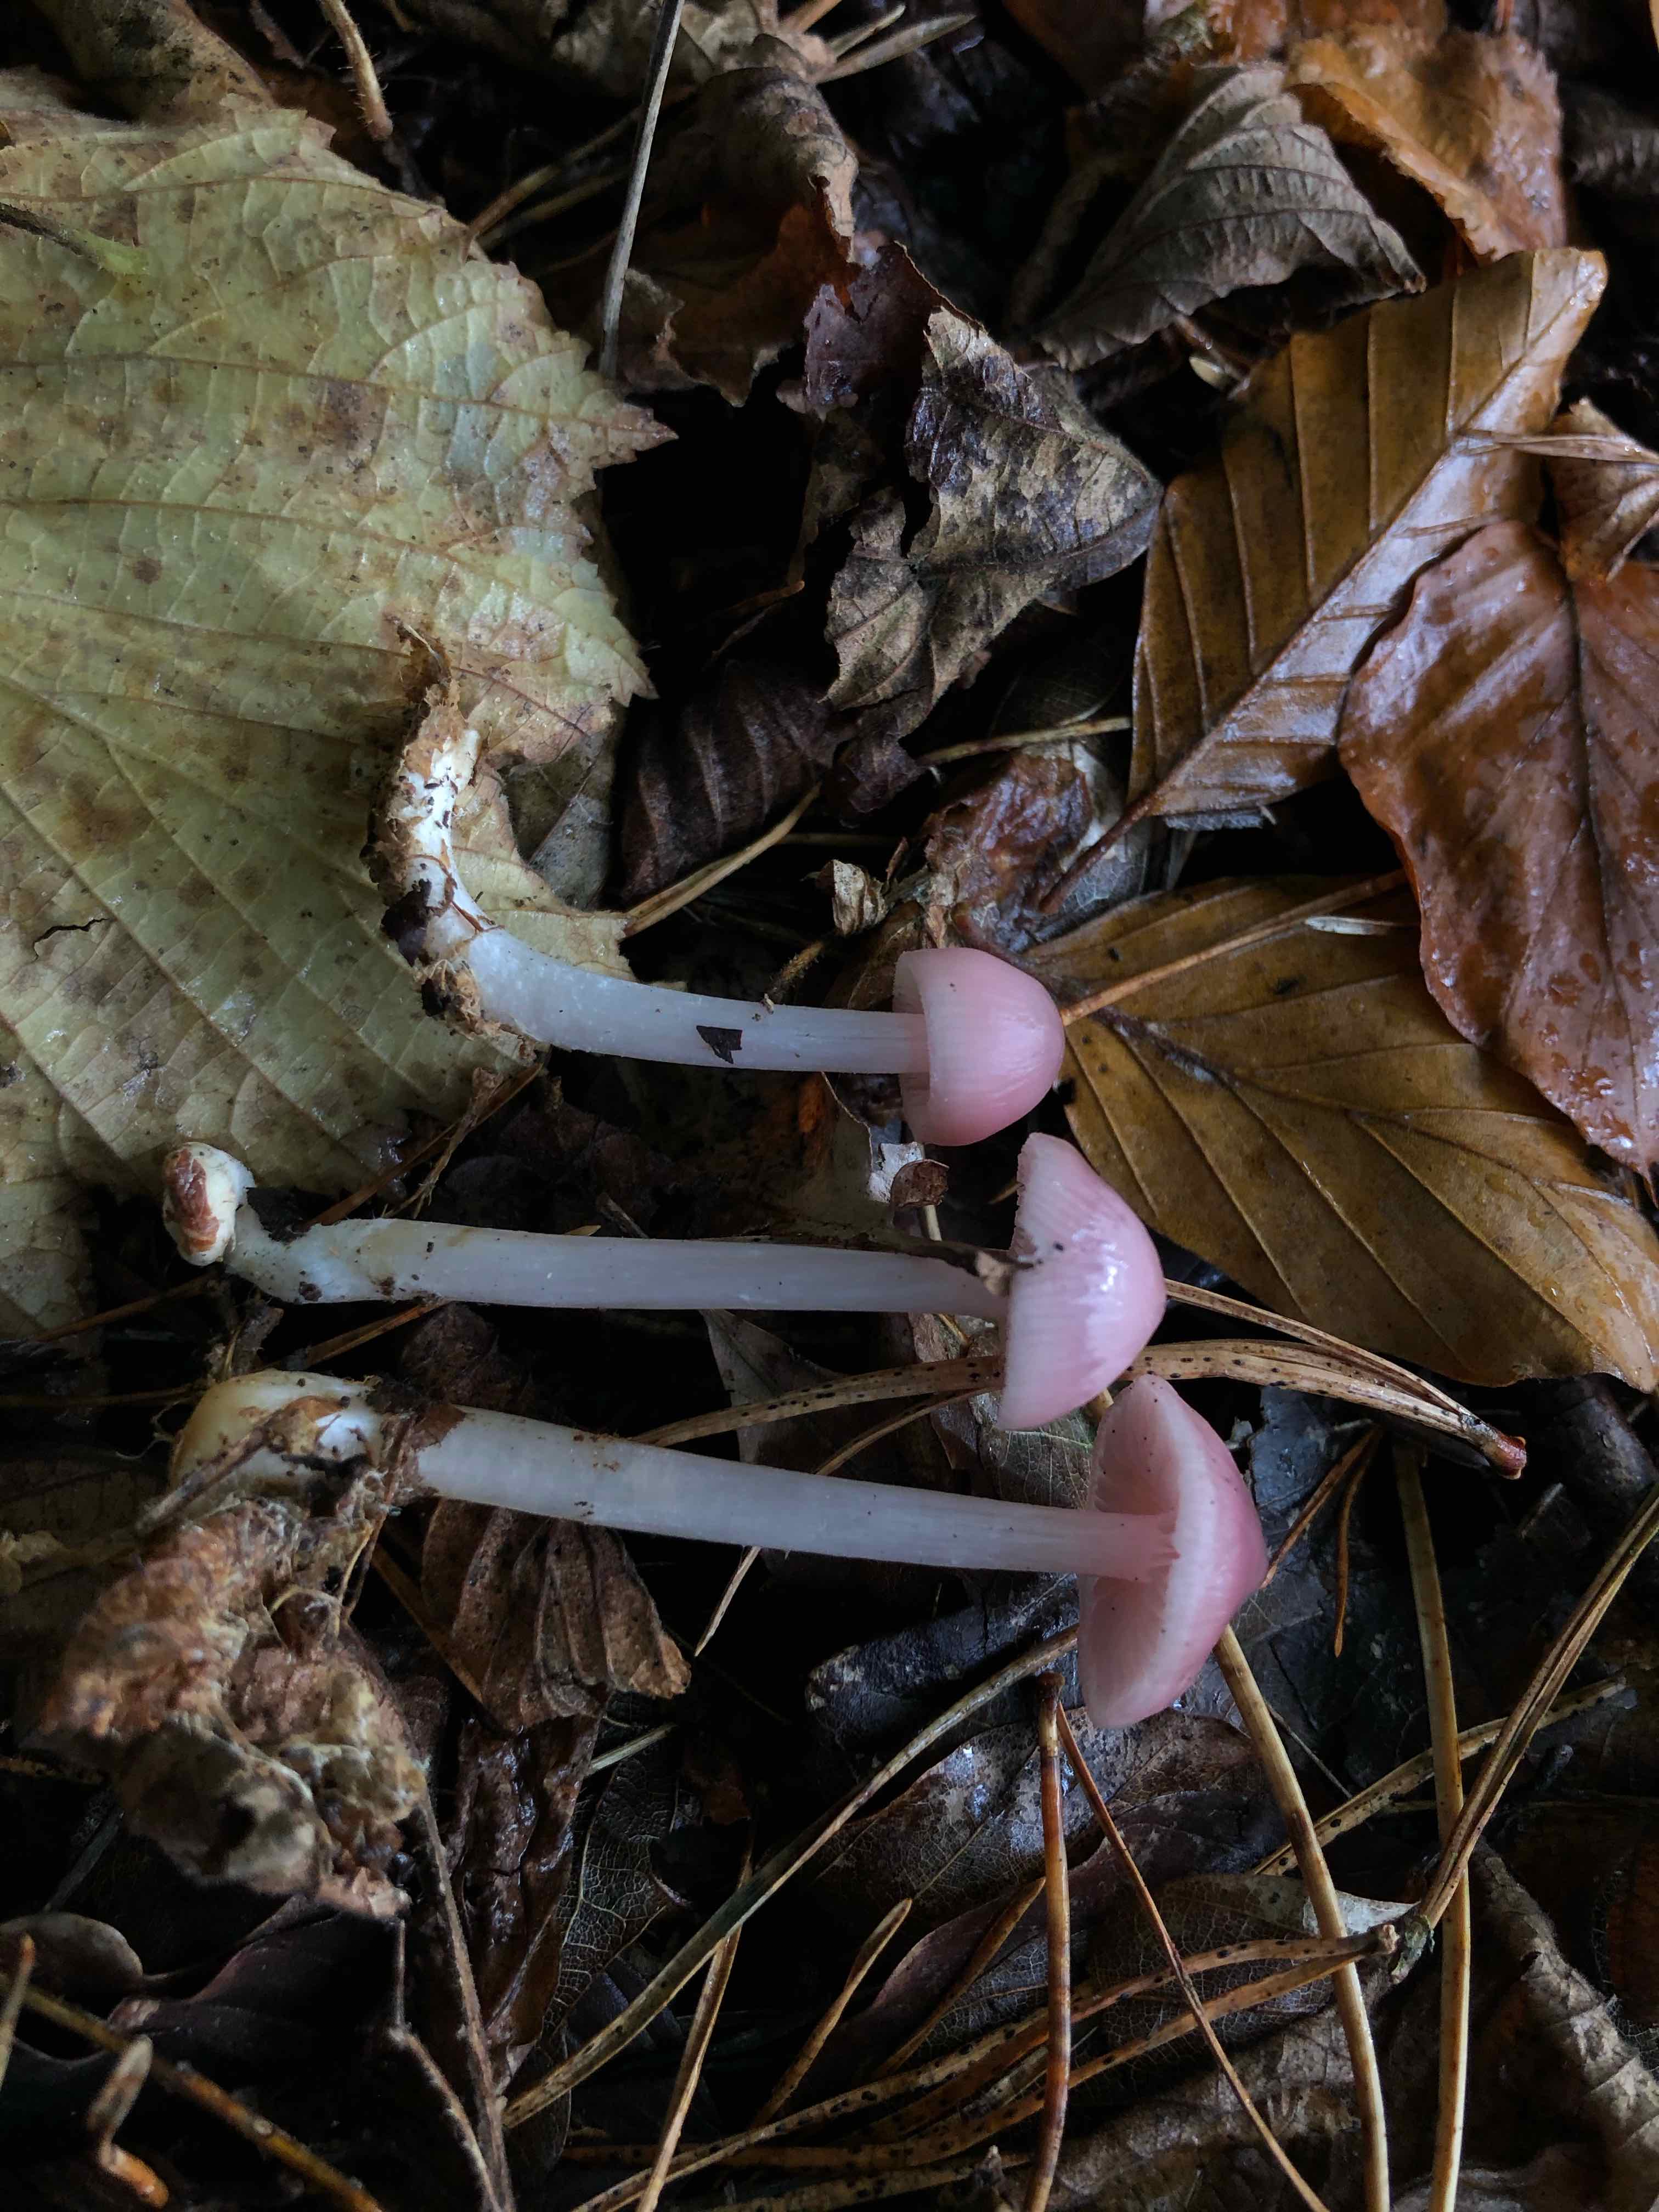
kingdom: Fungi
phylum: Basidiomycota
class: Agaricomycetes
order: Agaricales
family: Mycenaceae
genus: Mycena
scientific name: Mycena rosea
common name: rosa huesvamp
